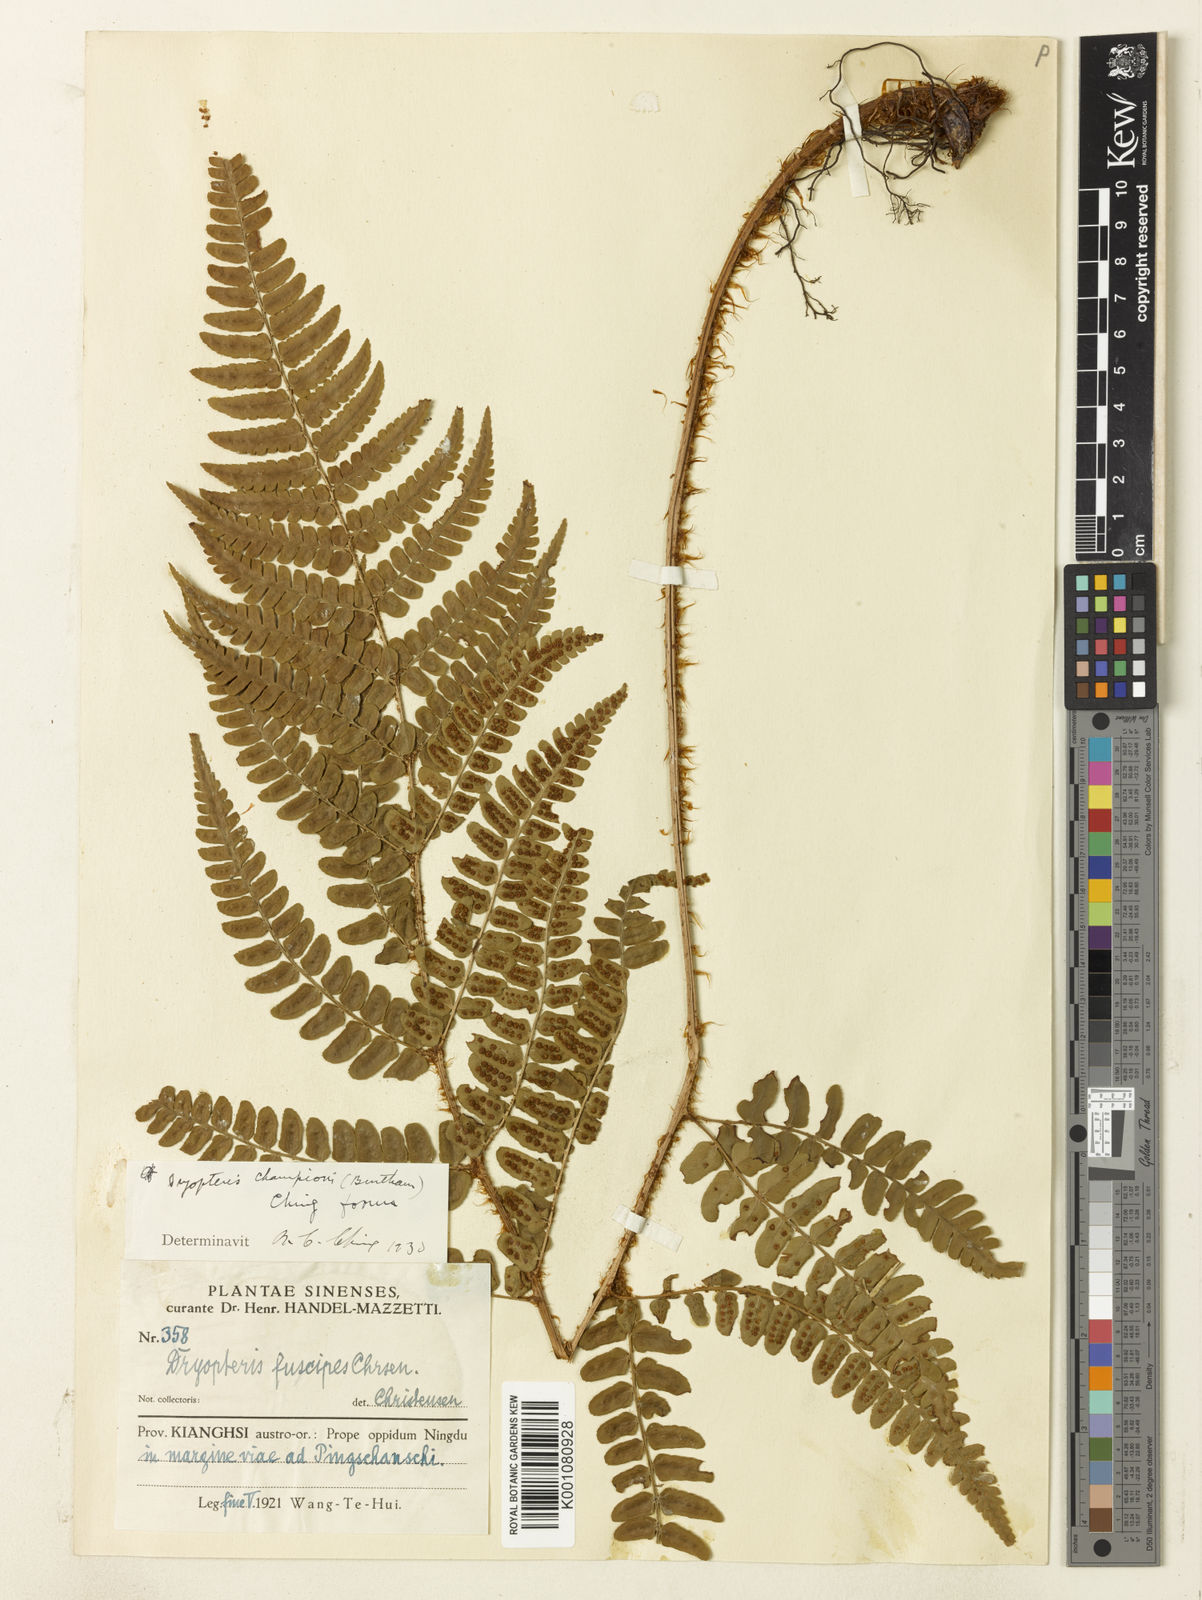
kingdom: Plantae
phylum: Tracheophyta
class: Polypodiopsida
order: Polypodiales
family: Dryopteridaceae
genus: Dryopteris
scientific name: Dryopteris fuscipes
